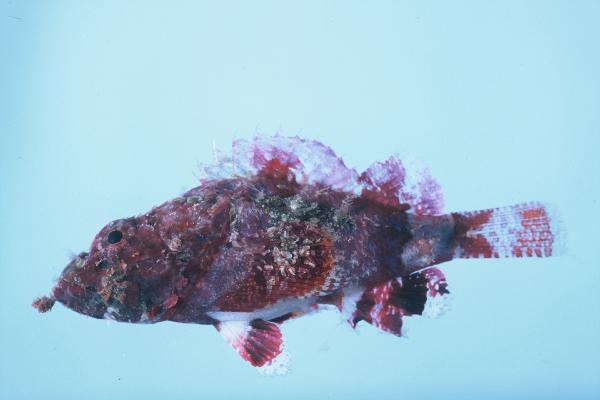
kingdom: Animalia
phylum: Chordata
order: Scorpaeniformes
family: Scorpaenidae
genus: Scorpaenopsis
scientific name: Scorpaenopsis vittapinna
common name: Bandfin scorpionfish
